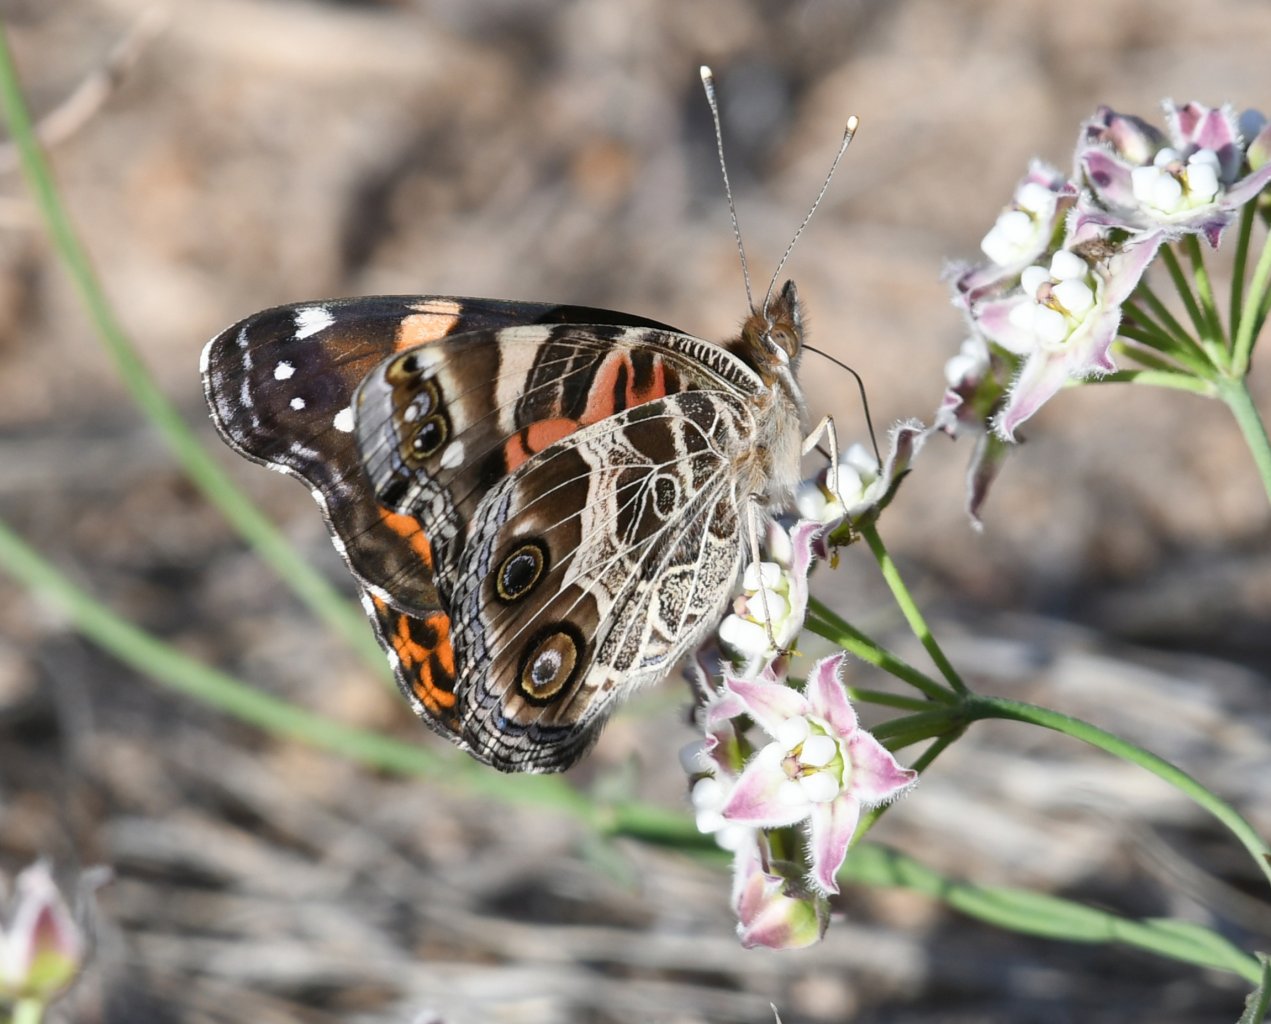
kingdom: Animalia
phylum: Arthropoda
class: Insecta
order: Lepidoptera
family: Nymphalidae
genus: Vanessa
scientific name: Vanessa virginiensis
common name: American Lady
